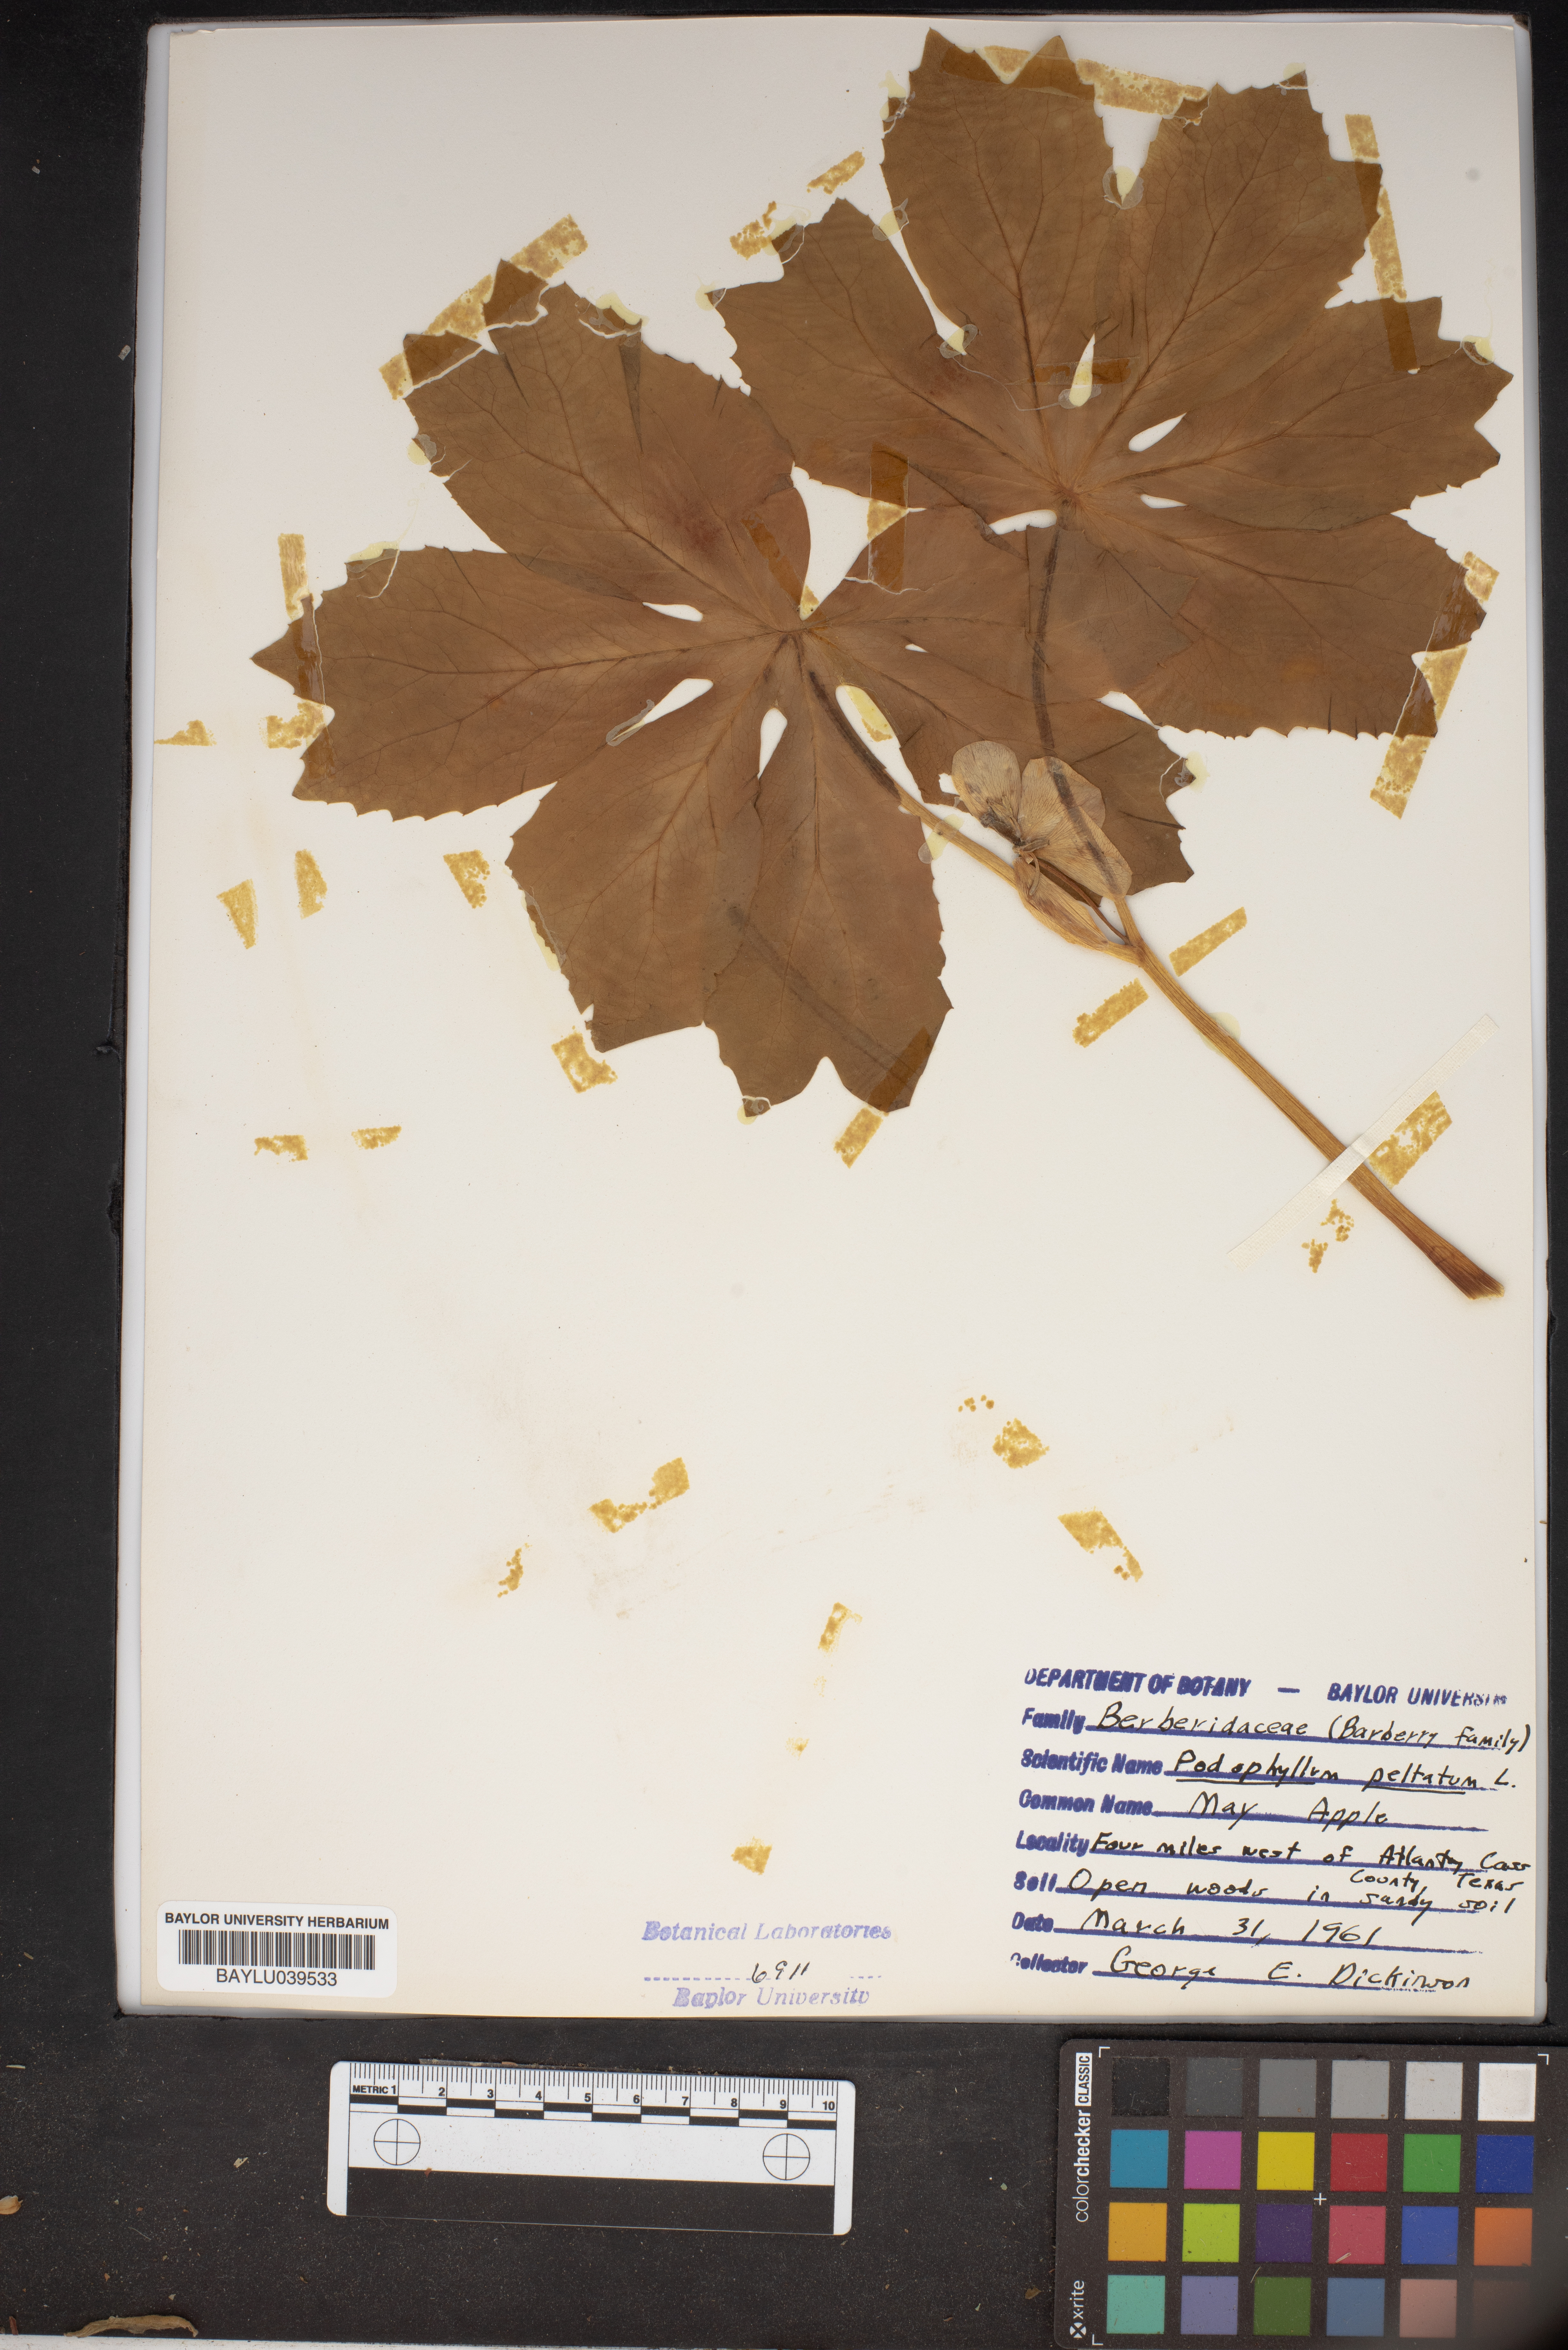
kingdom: Plantae
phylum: Tracheophyta
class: Magnoliopsida
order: Ranunculales
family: Berberidaceae
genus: Podophyllum
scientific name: Podophyllum peltatum
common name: Wild mandrake
